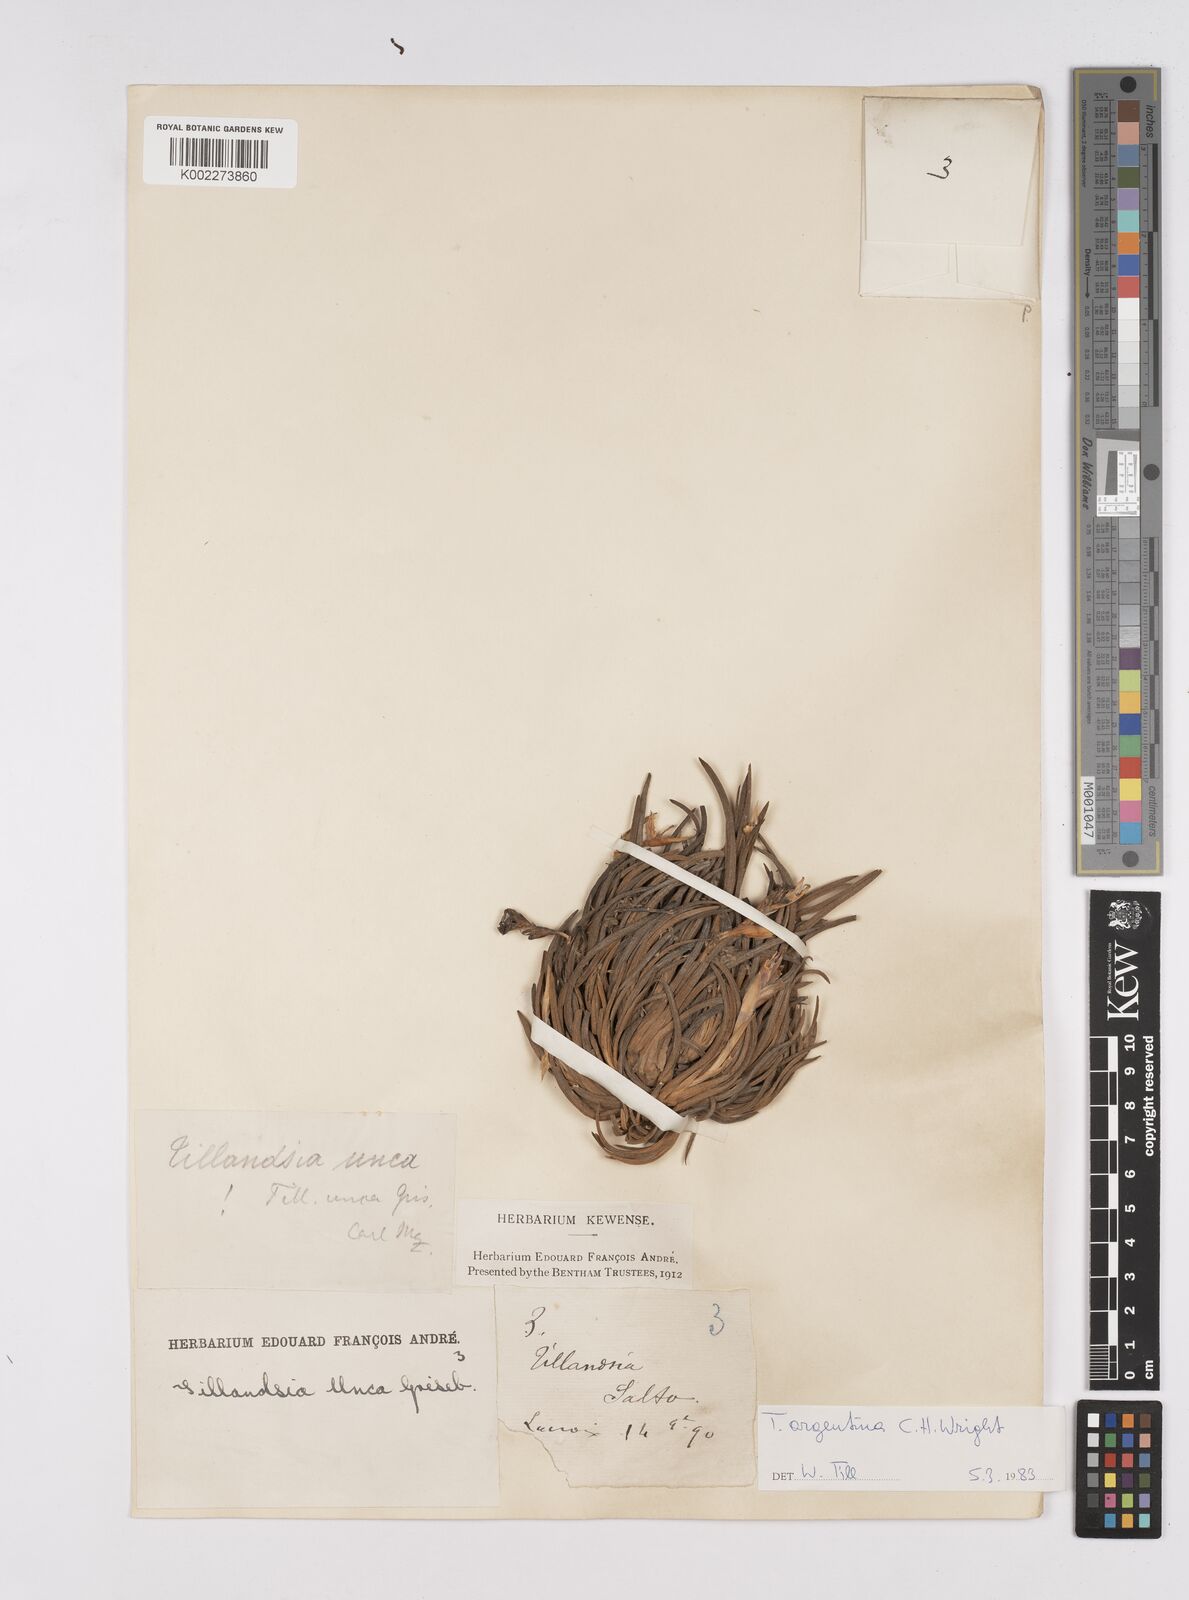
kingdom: Plantae
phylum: Tracheophyta
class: Liliopsida
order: Poales
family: Bromeliaceae
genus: Tillandsia
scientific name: Tillandsia argentina
